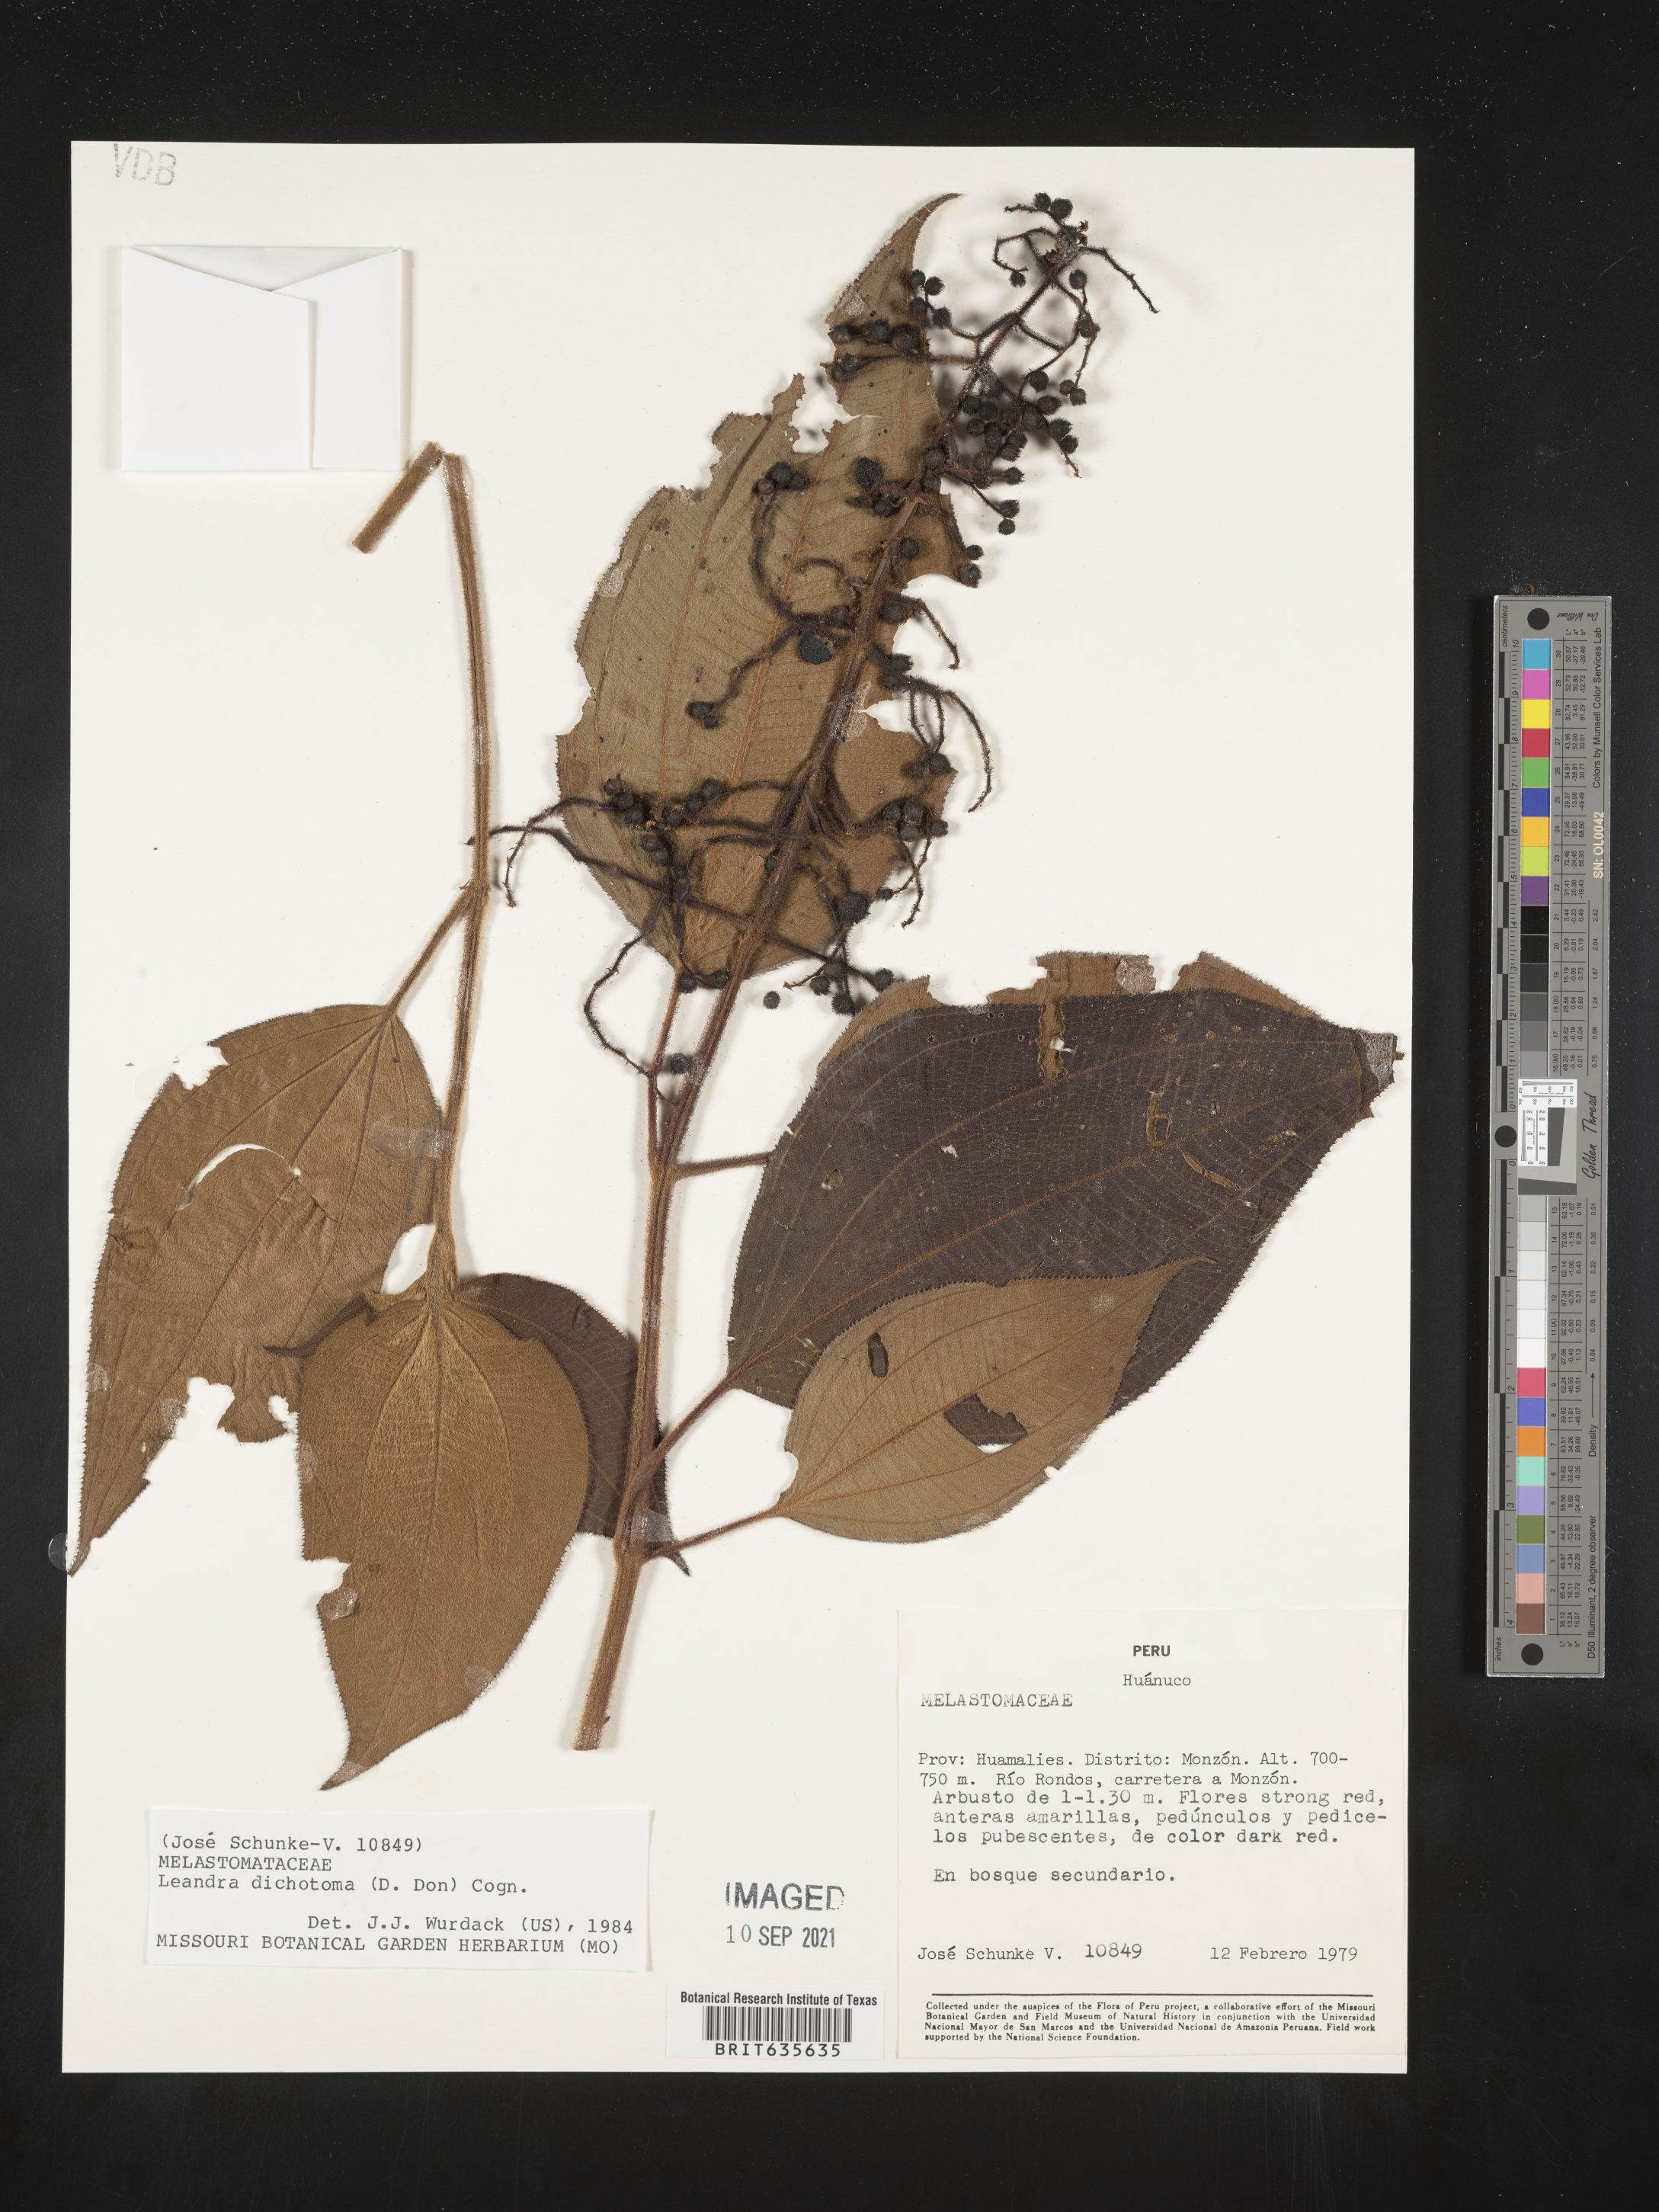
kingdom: Plantae
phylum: Tracheophyta
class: Magnoliopsida
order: Myrtales
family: Melastomataceae
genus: Miconia
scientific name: Miconia
